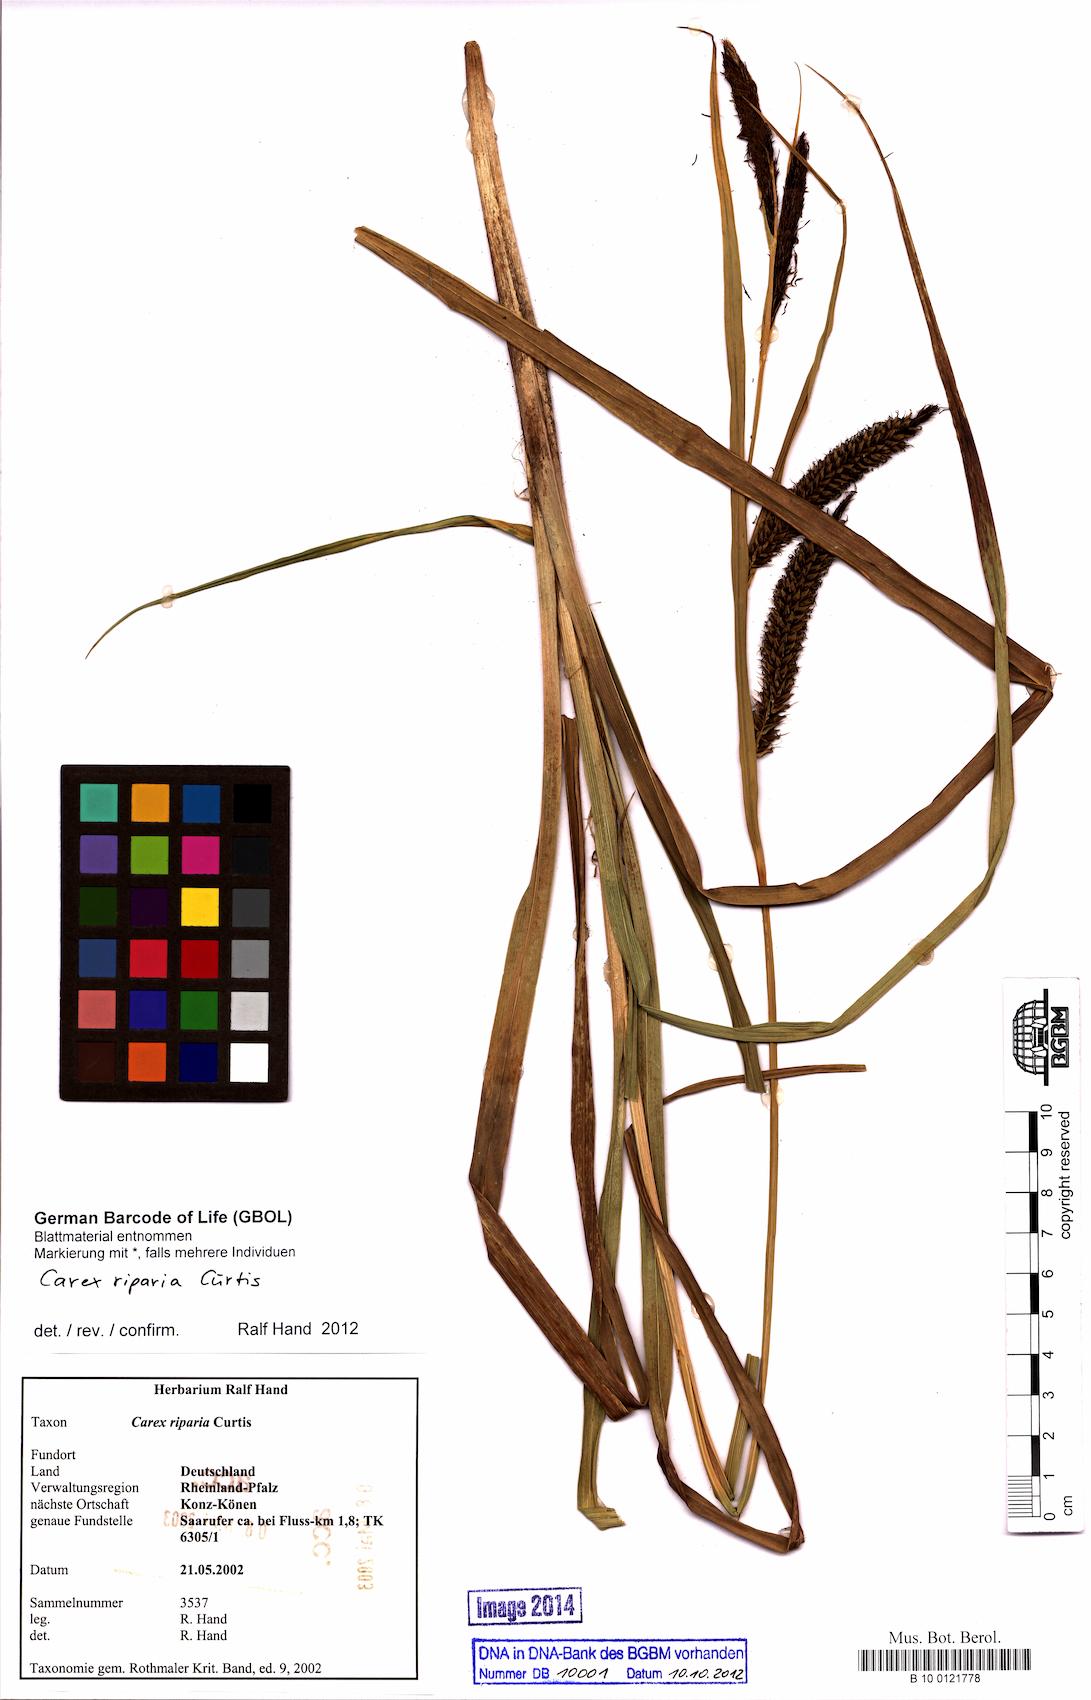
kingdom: Plantae
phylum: Tracheophyta
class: Liliopsida
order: Poales
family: Cyperaceae
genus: Carex
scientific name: Carex riparia
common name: Greater pond-sedge
